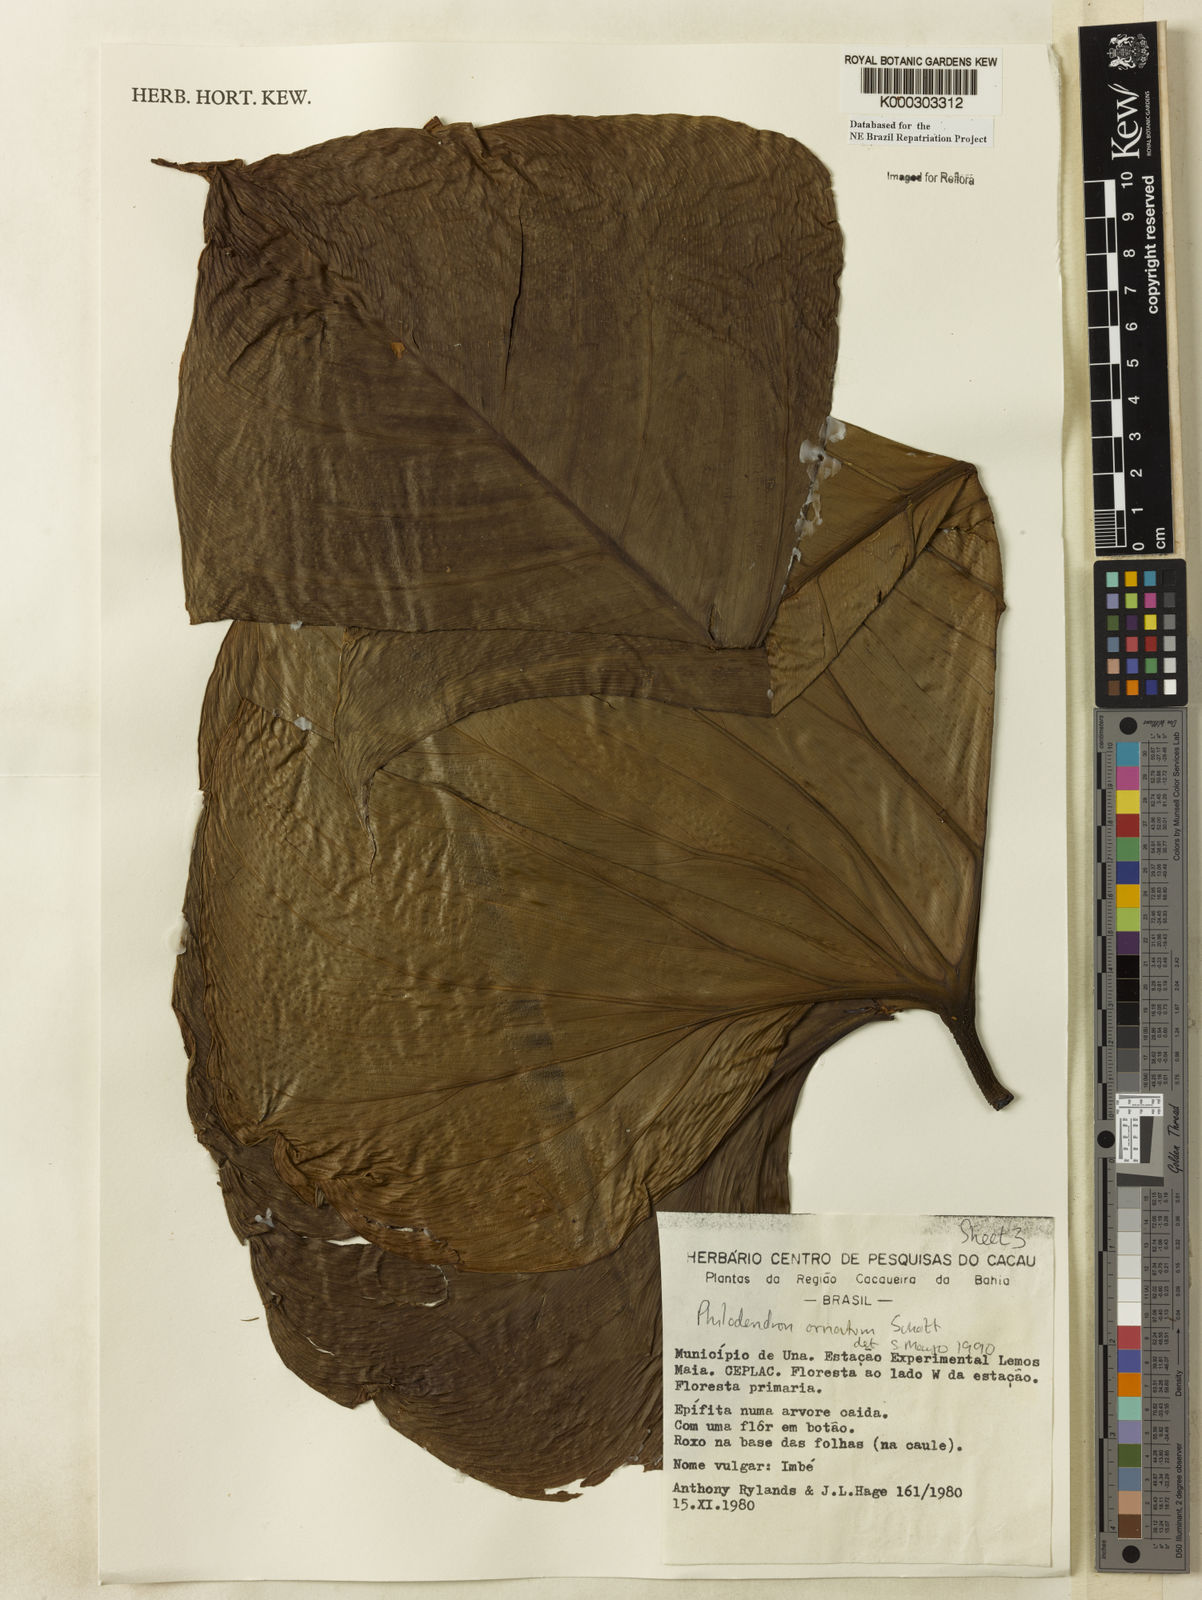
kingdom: Plantae
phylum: Tracheophyta
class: Liliopsida
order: Alismatales
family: Araceae
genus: Philodendron
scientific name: Philodendron ornatum
